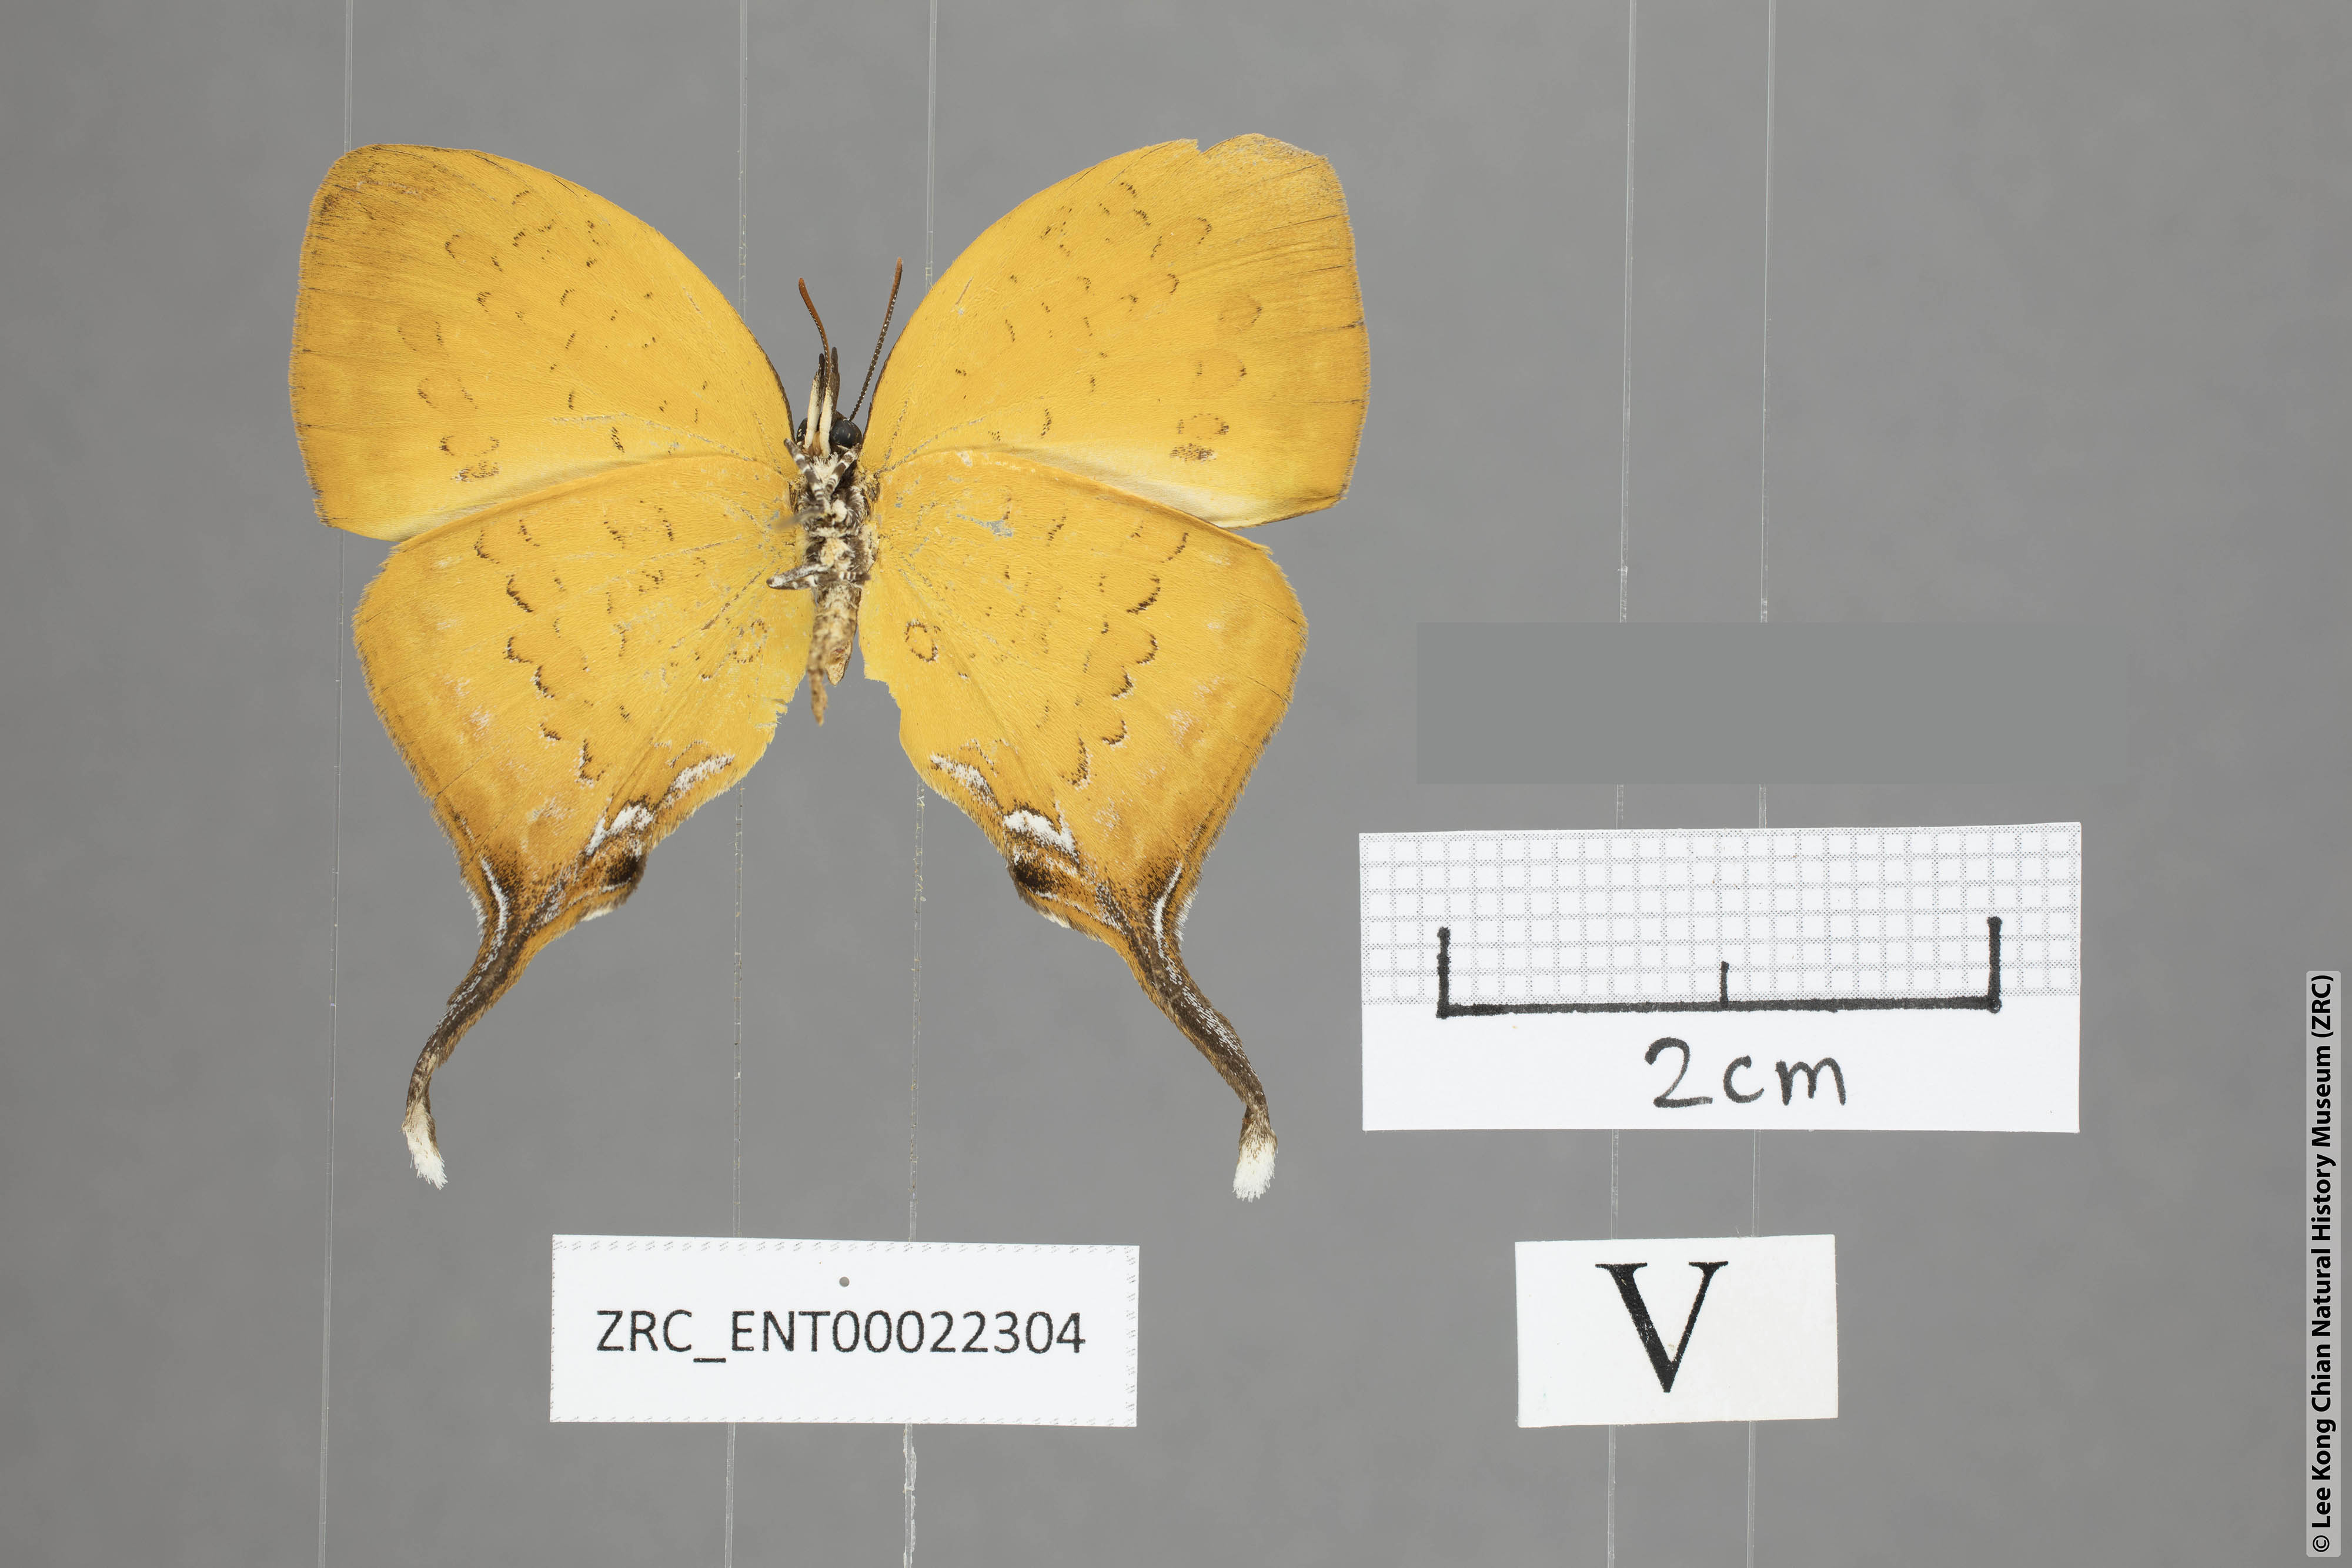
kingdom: Animalia
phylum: Arthropoda
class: Insecta
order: Lepidoptera
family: Lycaenidae
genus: Yasoda
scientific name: Yasoda pitane
